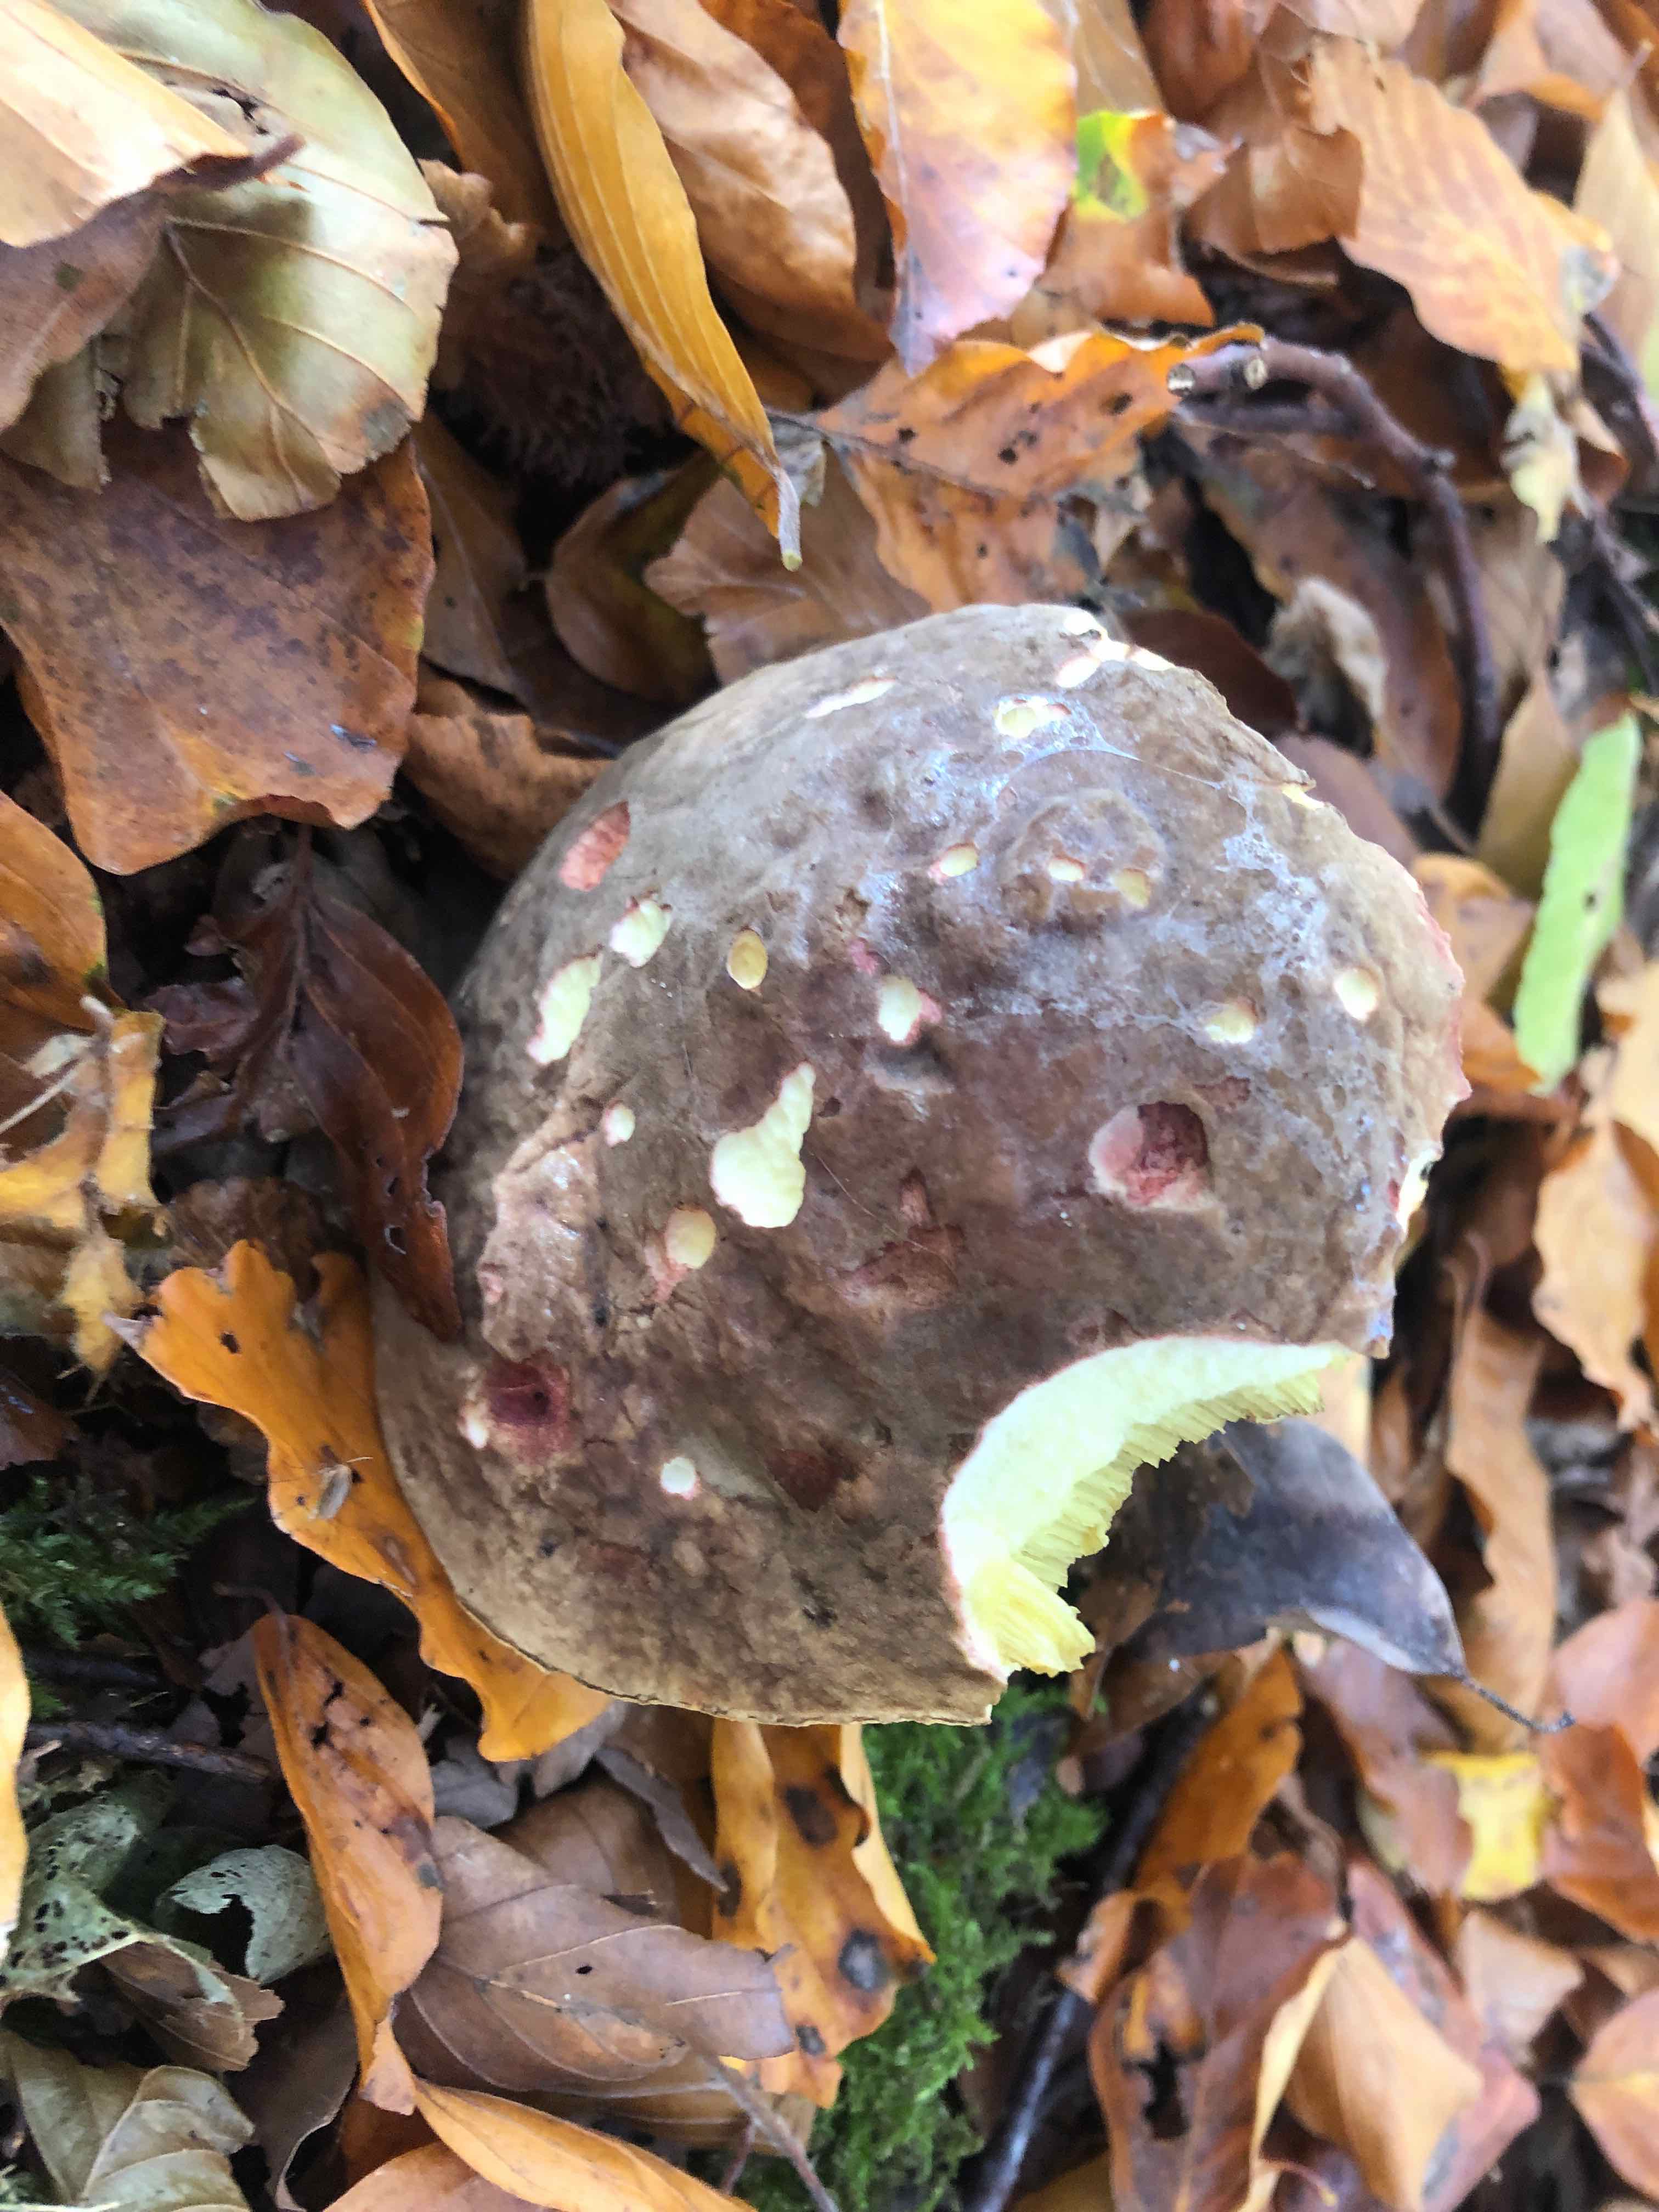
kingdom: Fungi
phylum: Basidiomycota
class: Agaricomycetes
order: Boletales
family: Boletaceae
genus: Xerocomellus
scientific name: Xerocomellus pruinatus
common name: dugget rørhat
